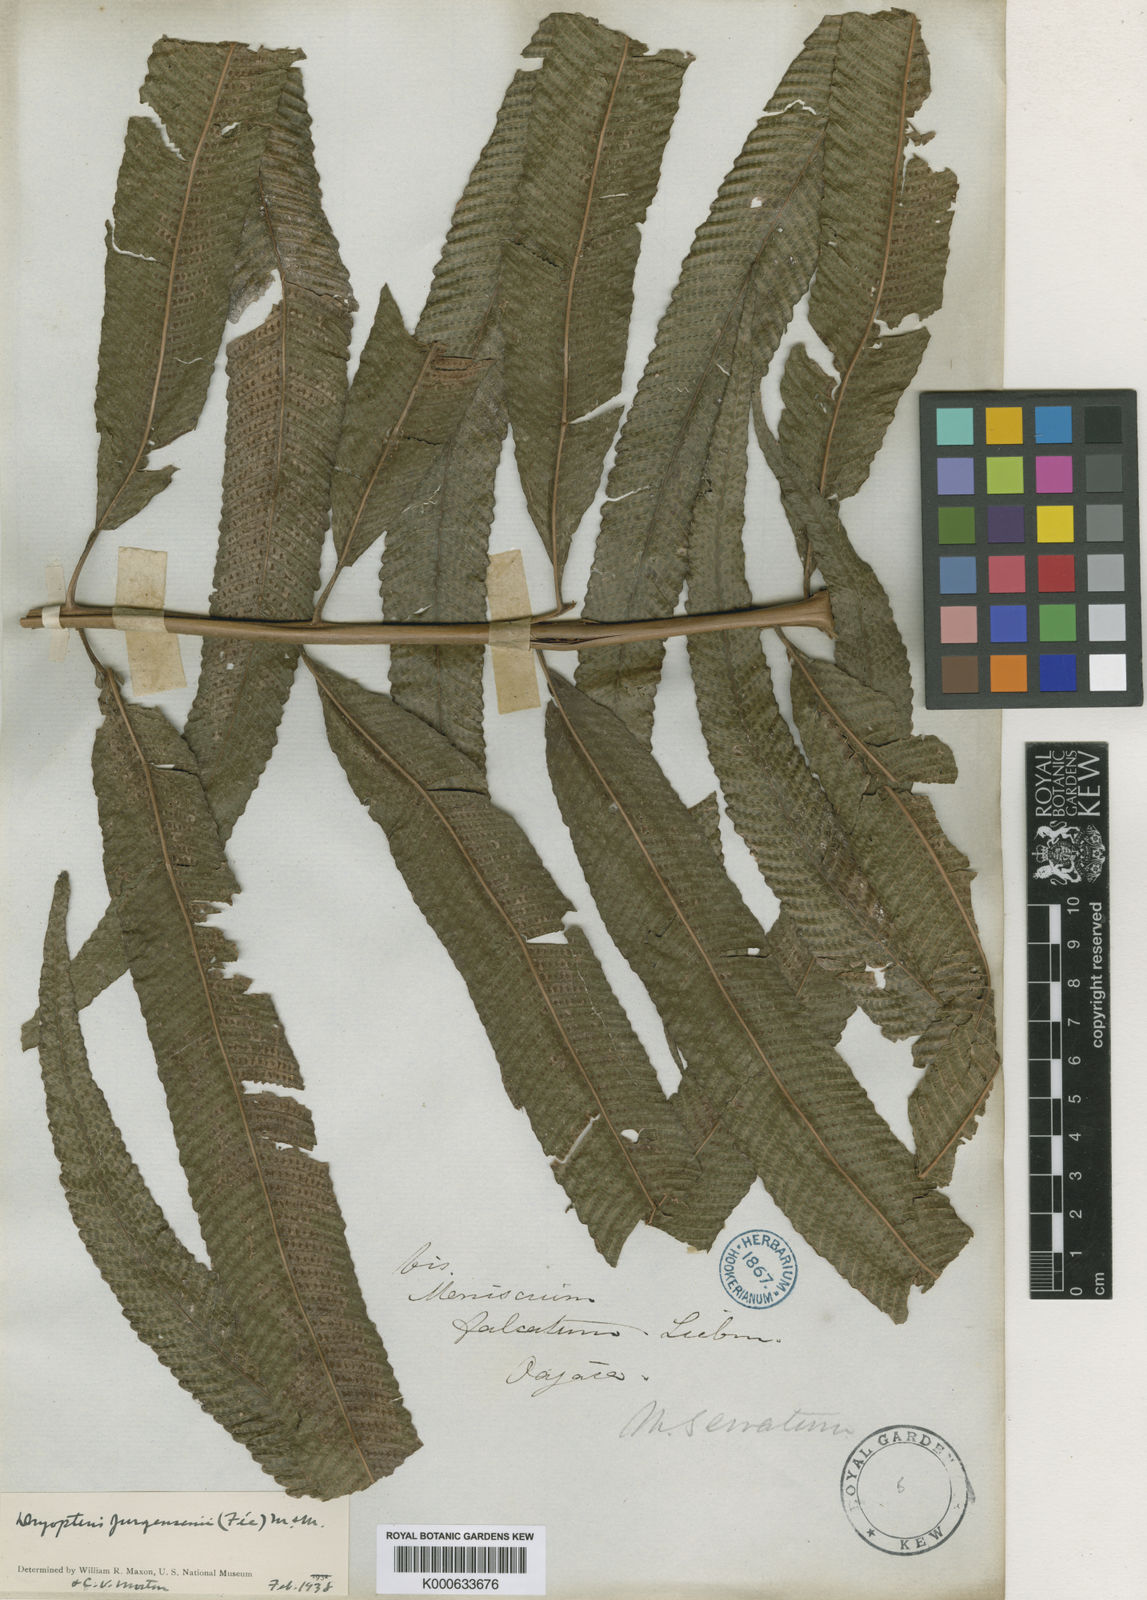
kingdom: Plantae
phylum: Tracheophyta
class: Polypodiopsida
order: Polypodiales
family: Thelypteridaceae
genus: Meniscium
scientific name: Meniscium
